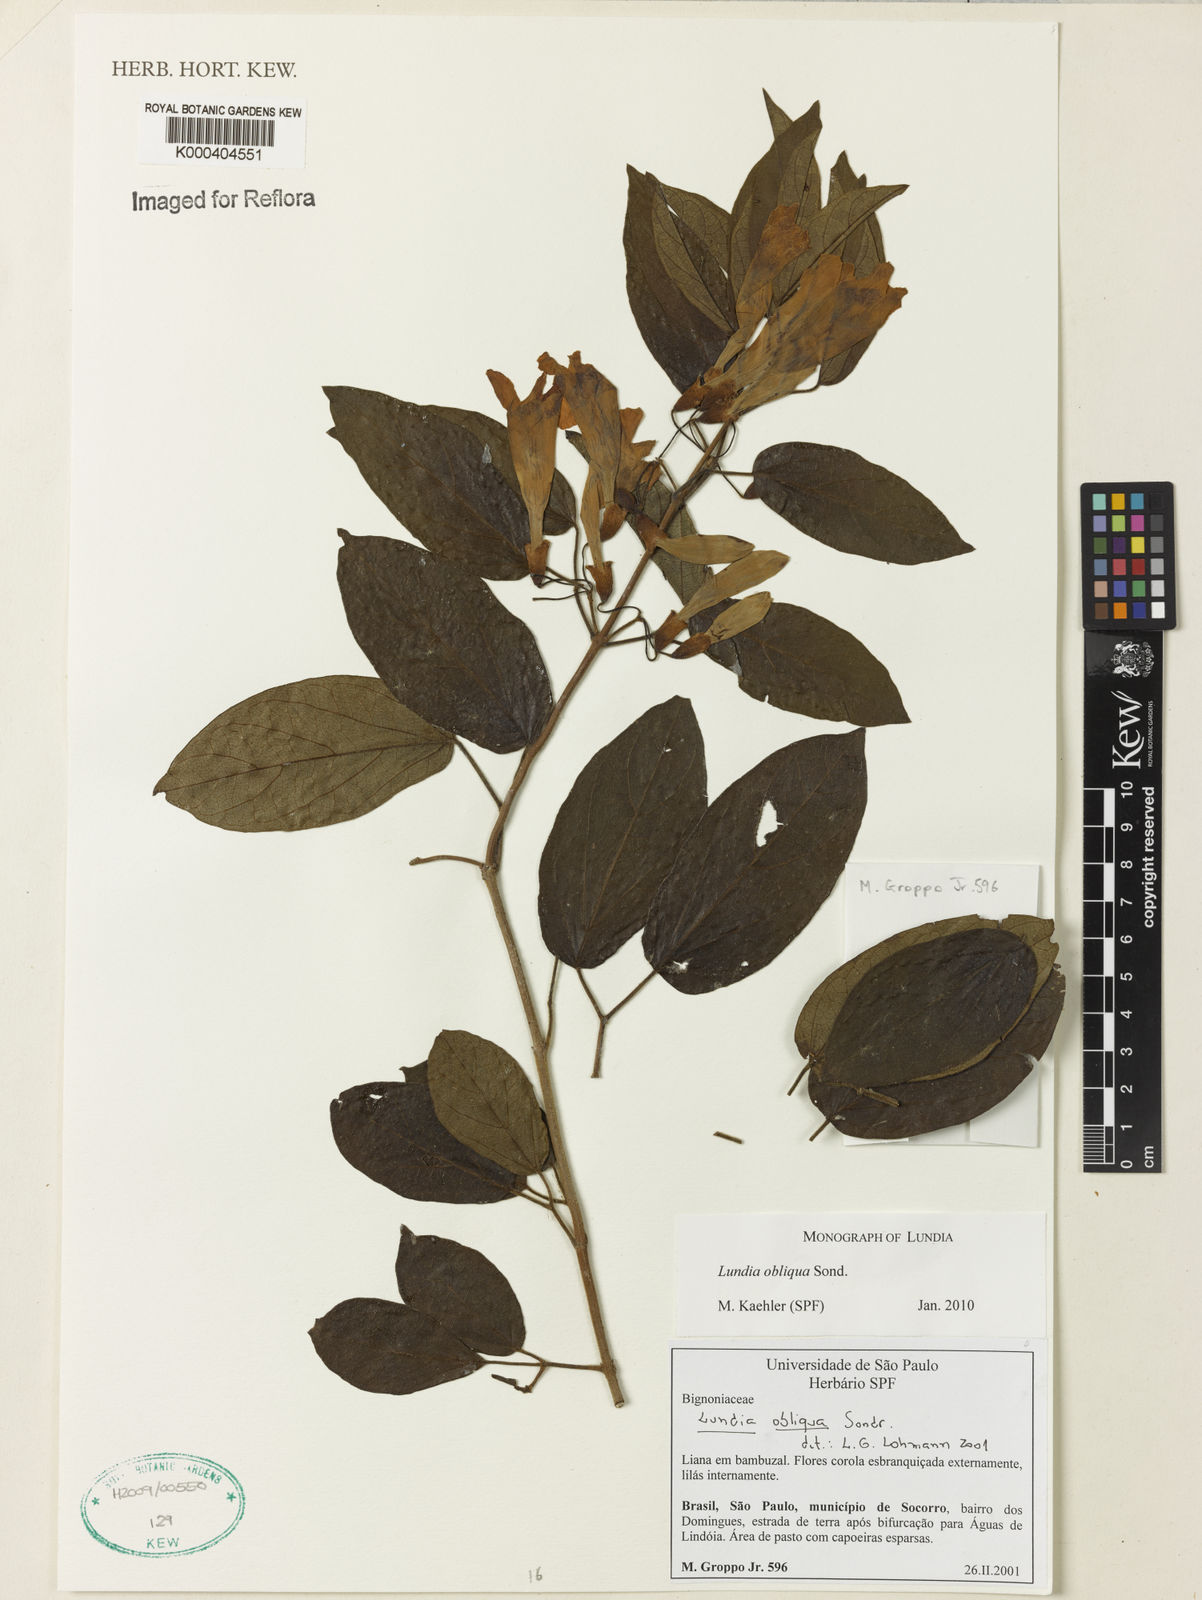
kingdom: Plantae
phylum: Tracheophyta
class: Magnoliopsida
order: Lamiales
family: Bignoniaceae
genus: Lundia
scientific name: Lundia obliqua
